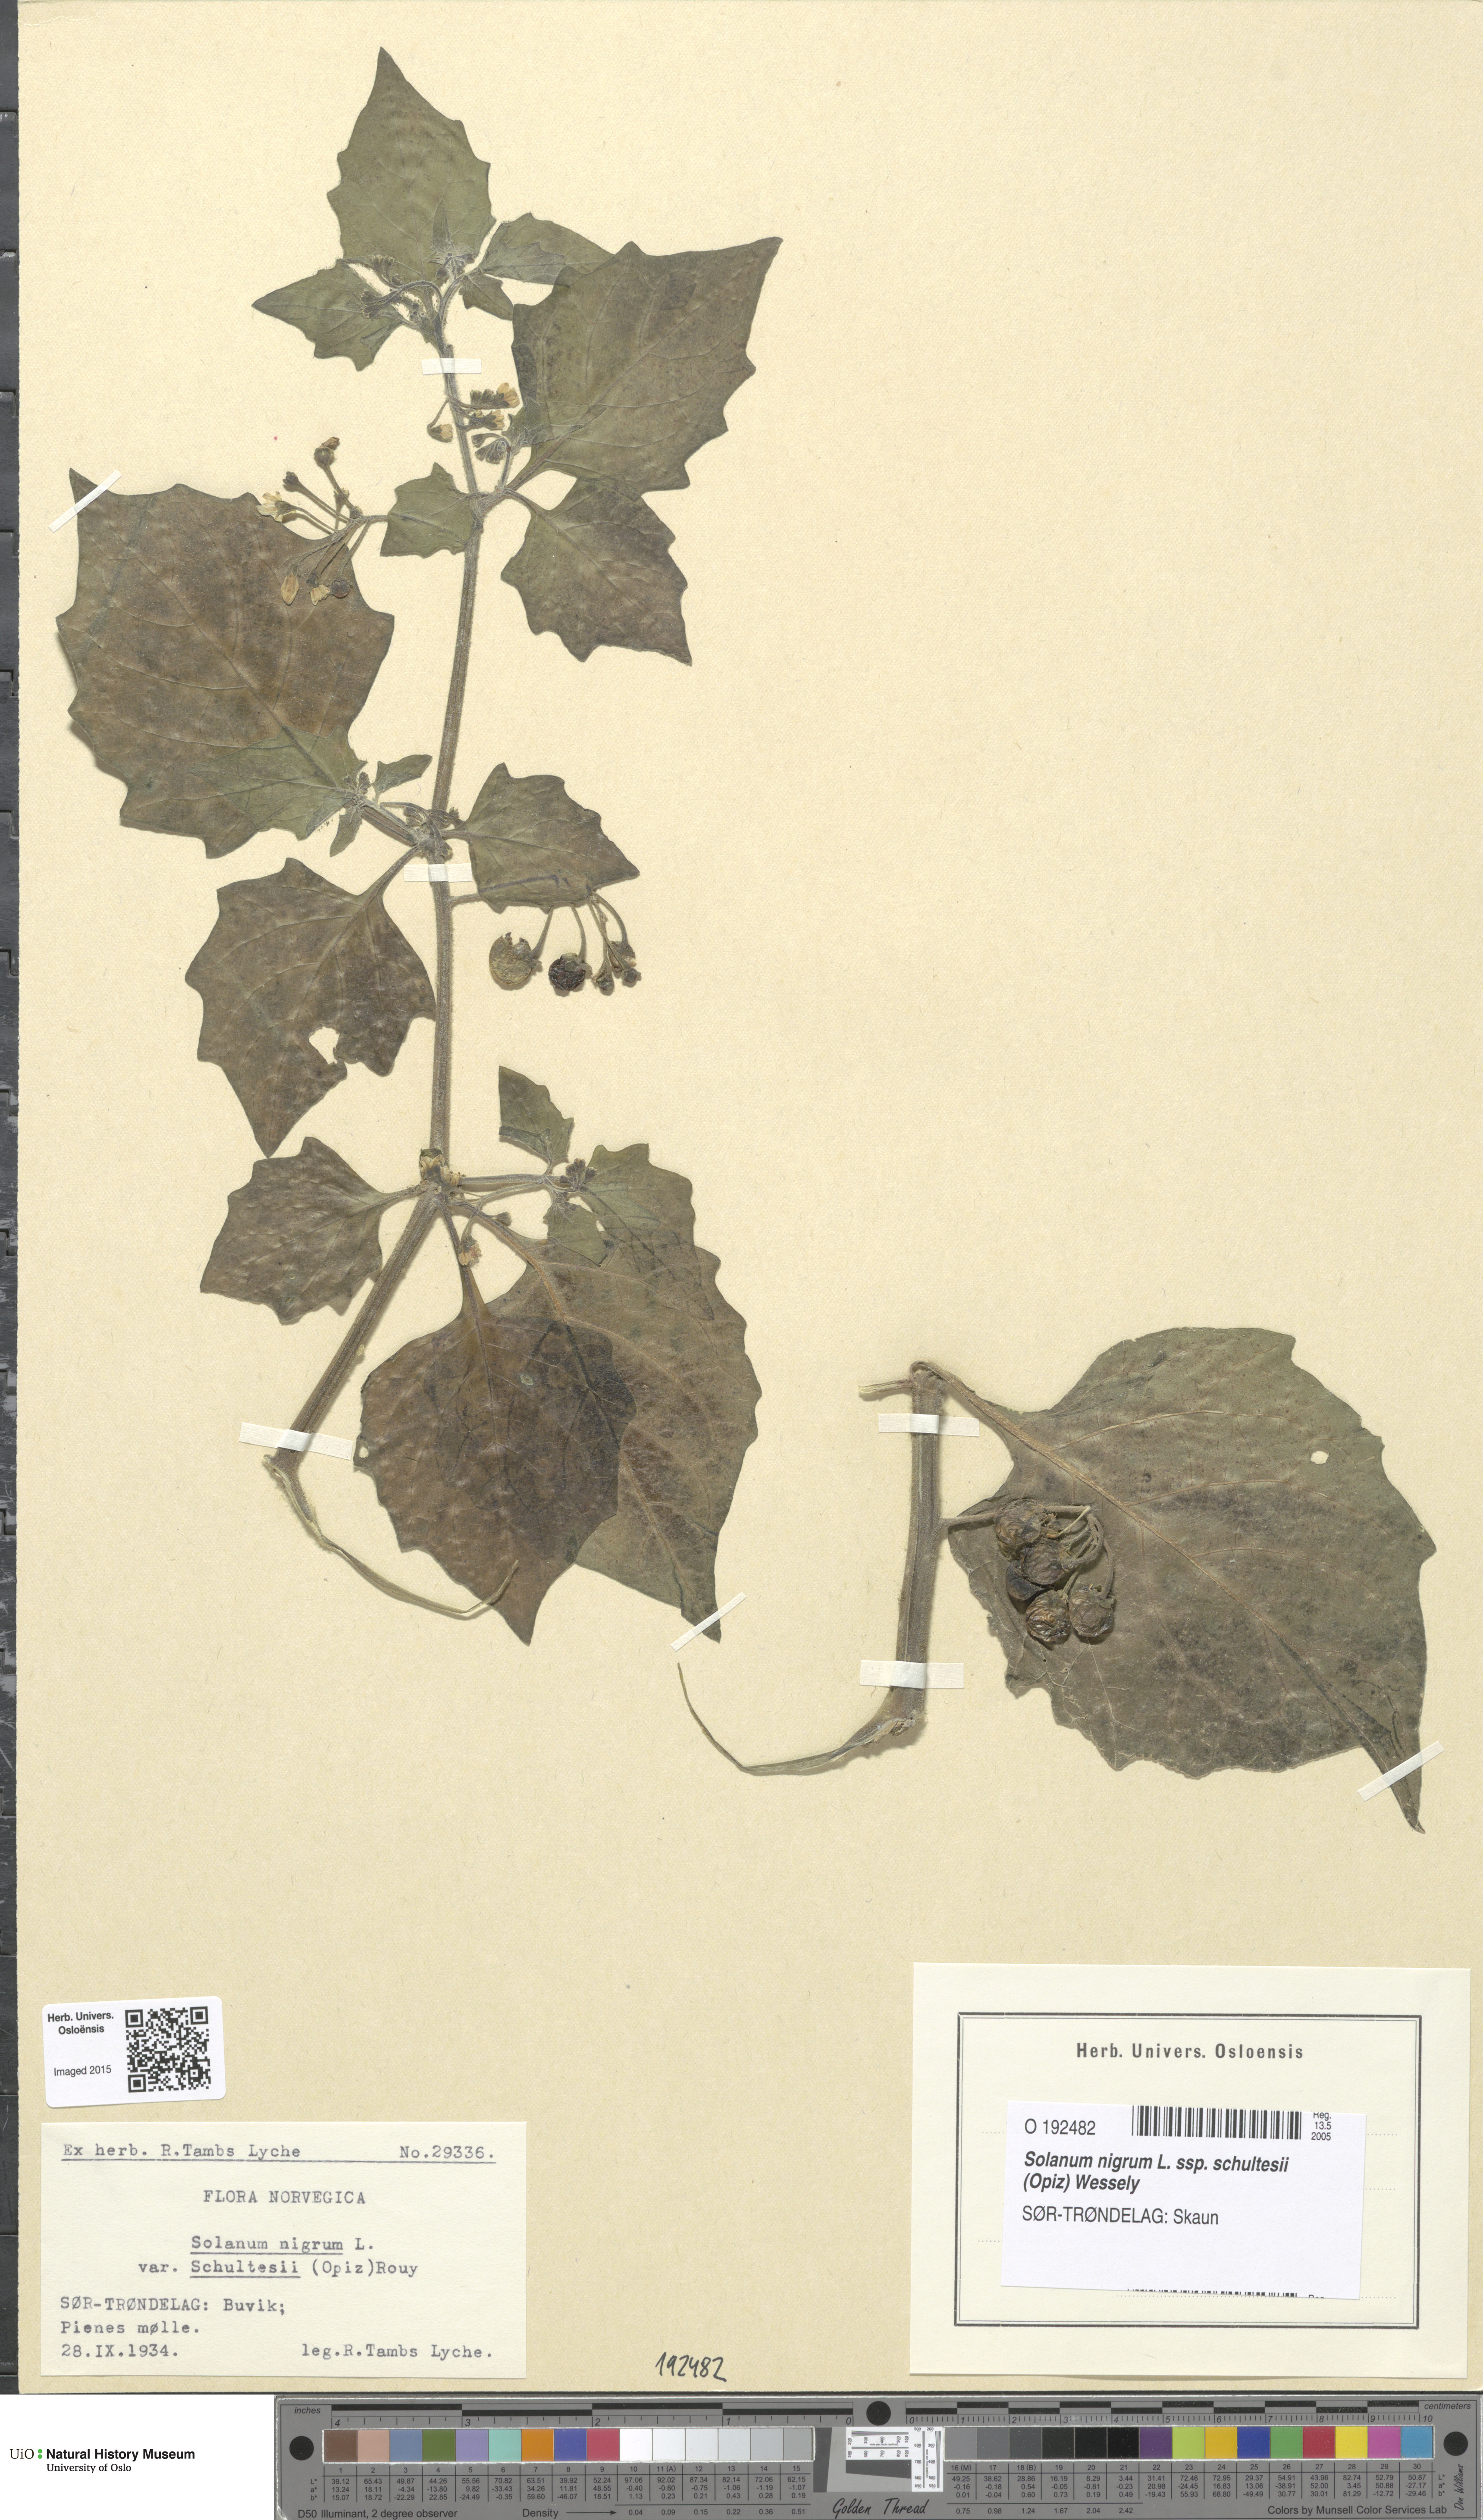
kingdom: Plantae
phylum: Tracheophyta
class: Magnoliopsida
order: Solanales
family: Solanaceae
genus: Solanum
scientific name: Solanum decipiens
